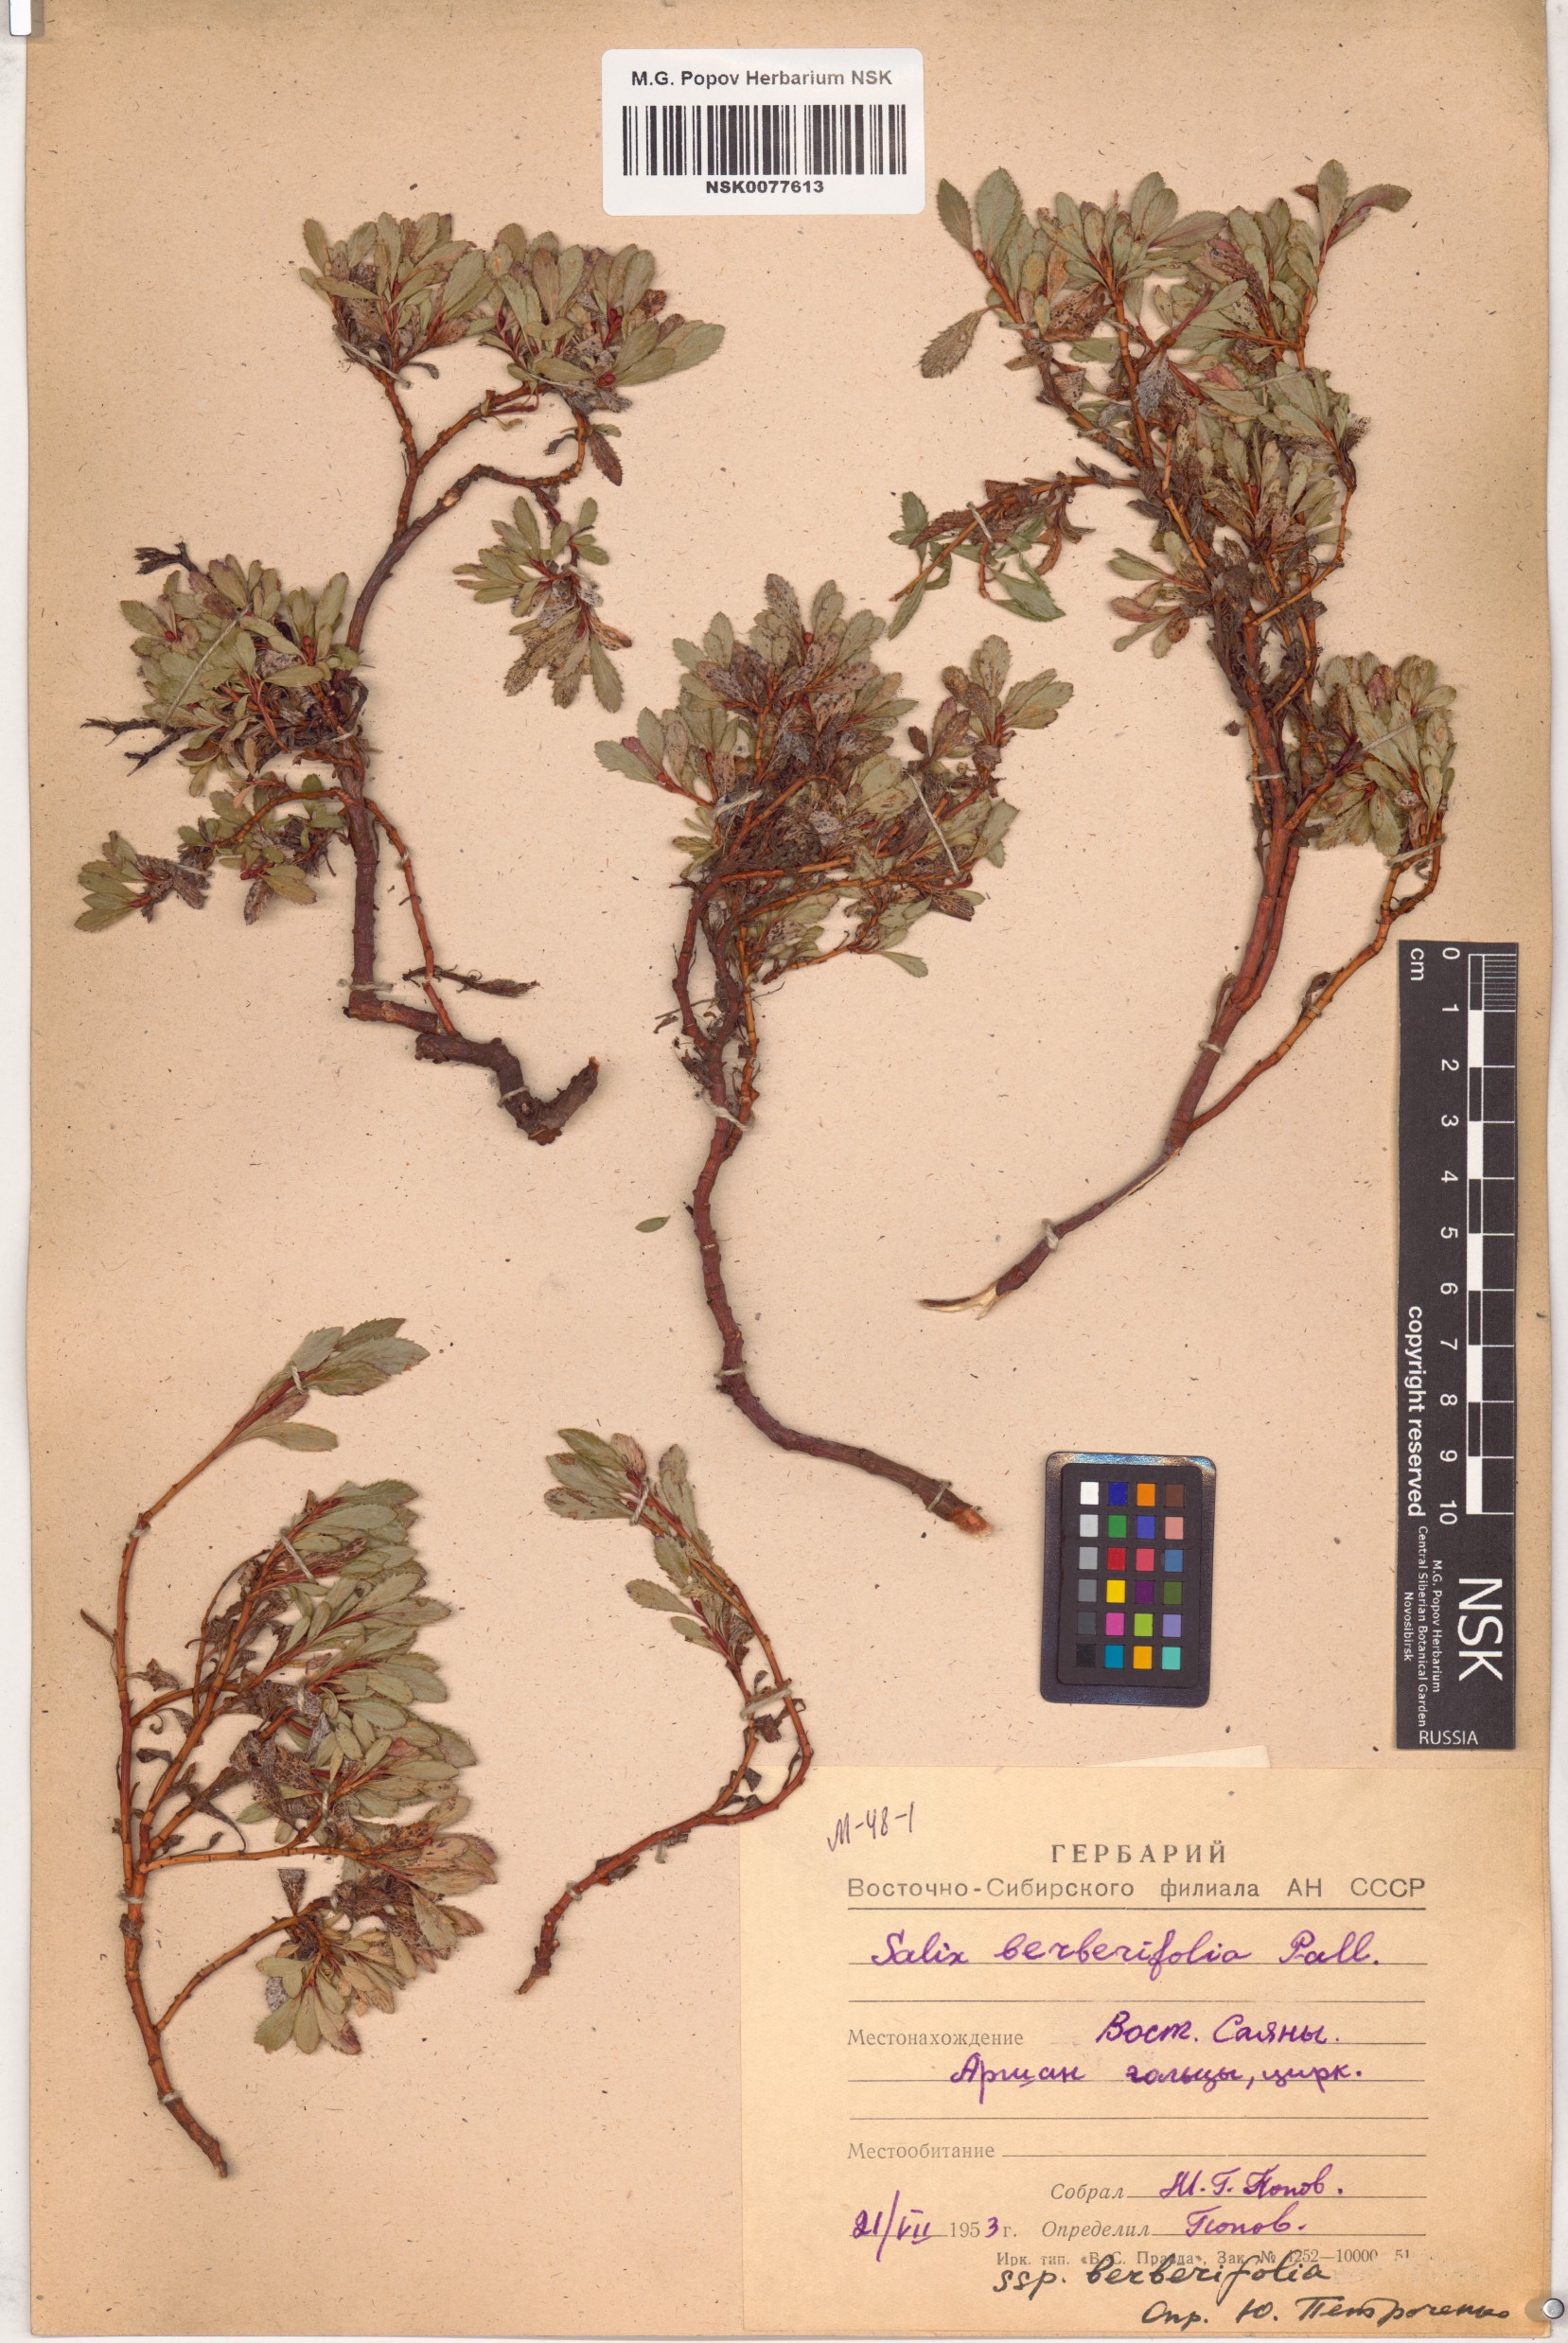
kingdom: Plantae
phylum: Tracheophyta
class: Magnoliopsida
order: Malpighiales
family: Salicaceae
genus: Salix
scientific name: Salix berberifolia
